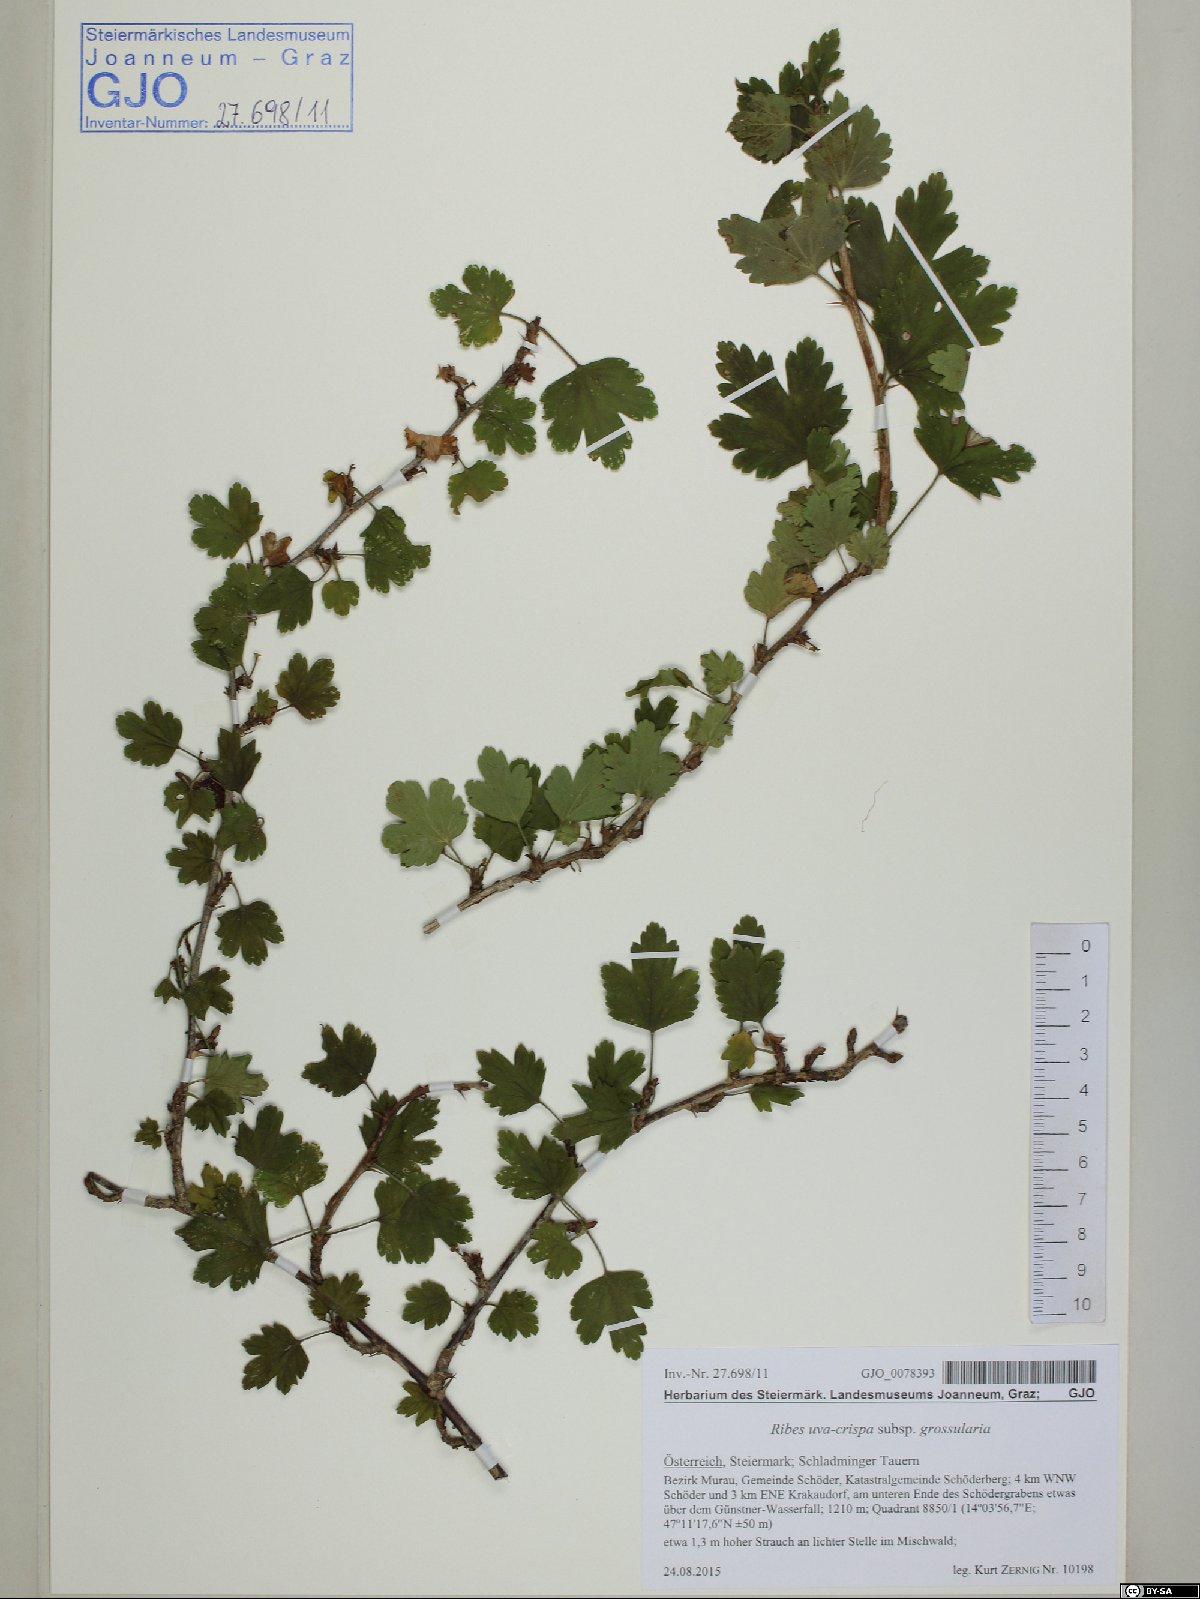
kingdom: Plantae
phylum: Tracheophyta
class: Magnoliopsida
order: Saxifragales
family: Grossulariaceae
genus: Ribes
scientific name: Ribes uva-crispa
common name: Gooseberry
